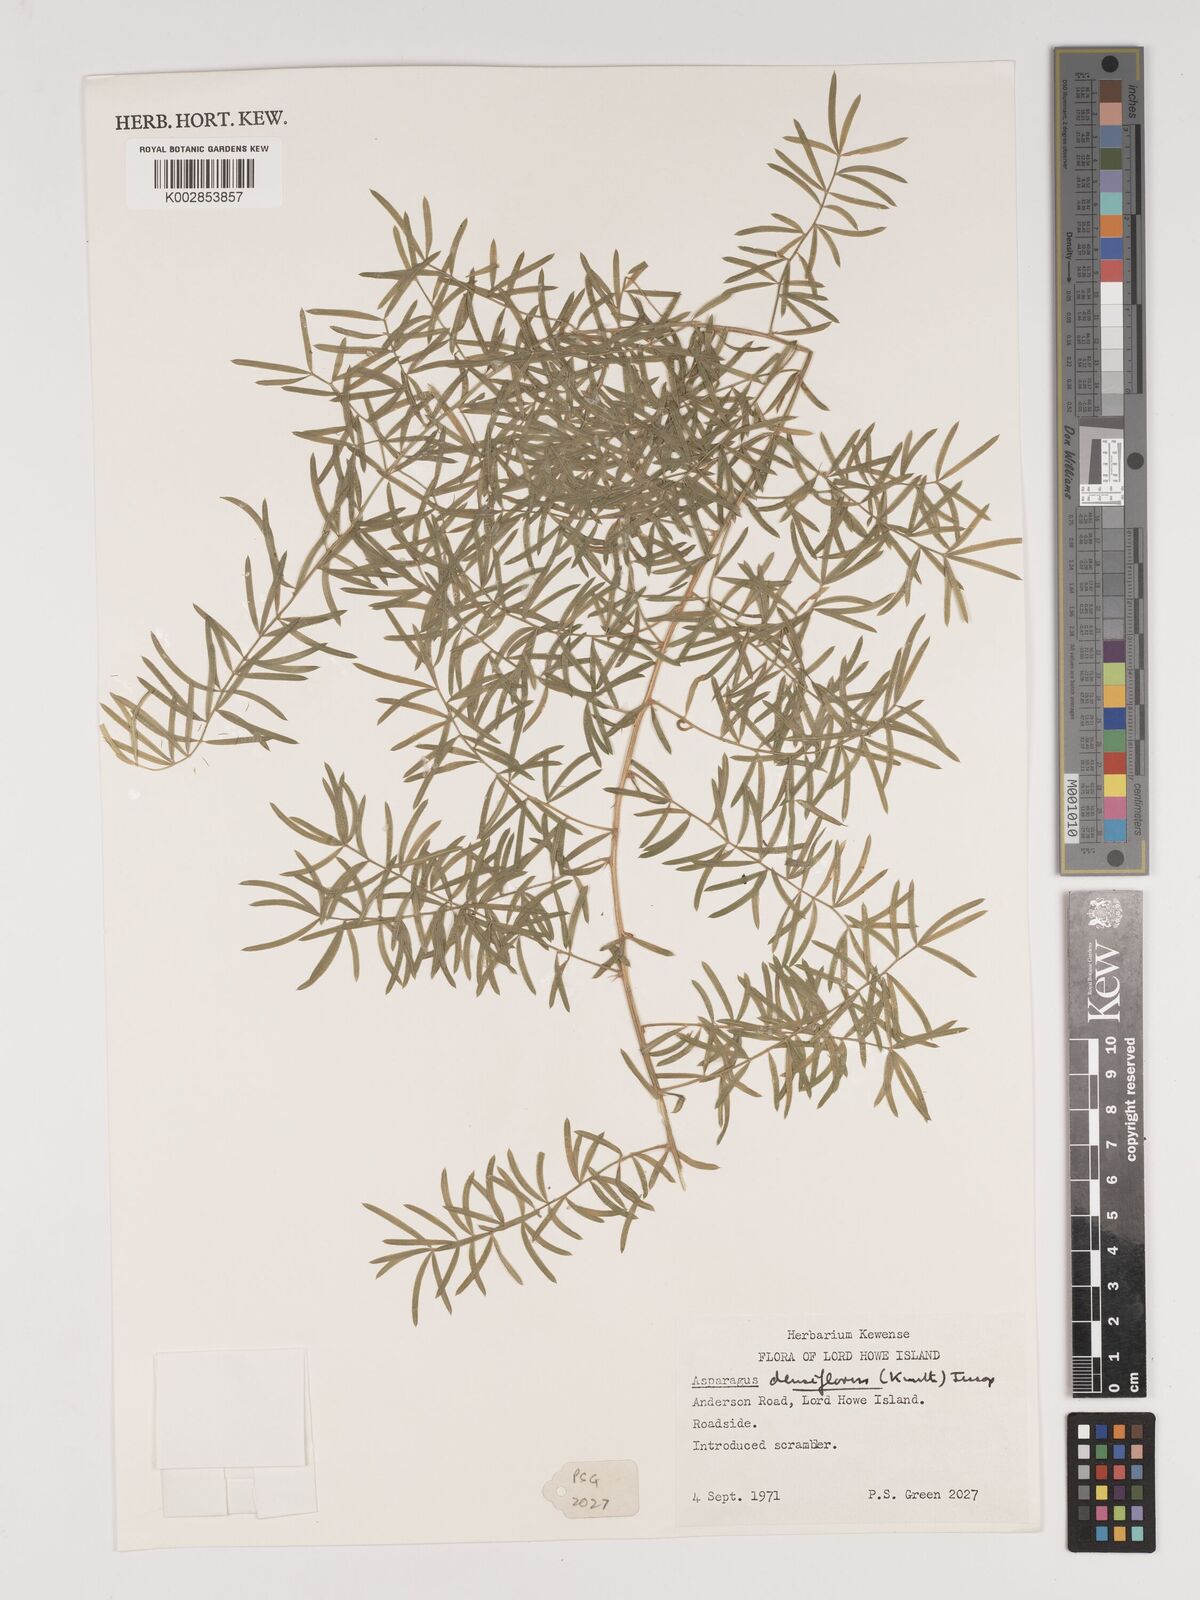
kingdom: Plantae
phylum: Tracheophyta
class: Liliopsida
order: Asparagales
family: Asparagaceae
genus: Asparagus
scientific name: Asparagus densiflorus
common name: Asparagus fern
